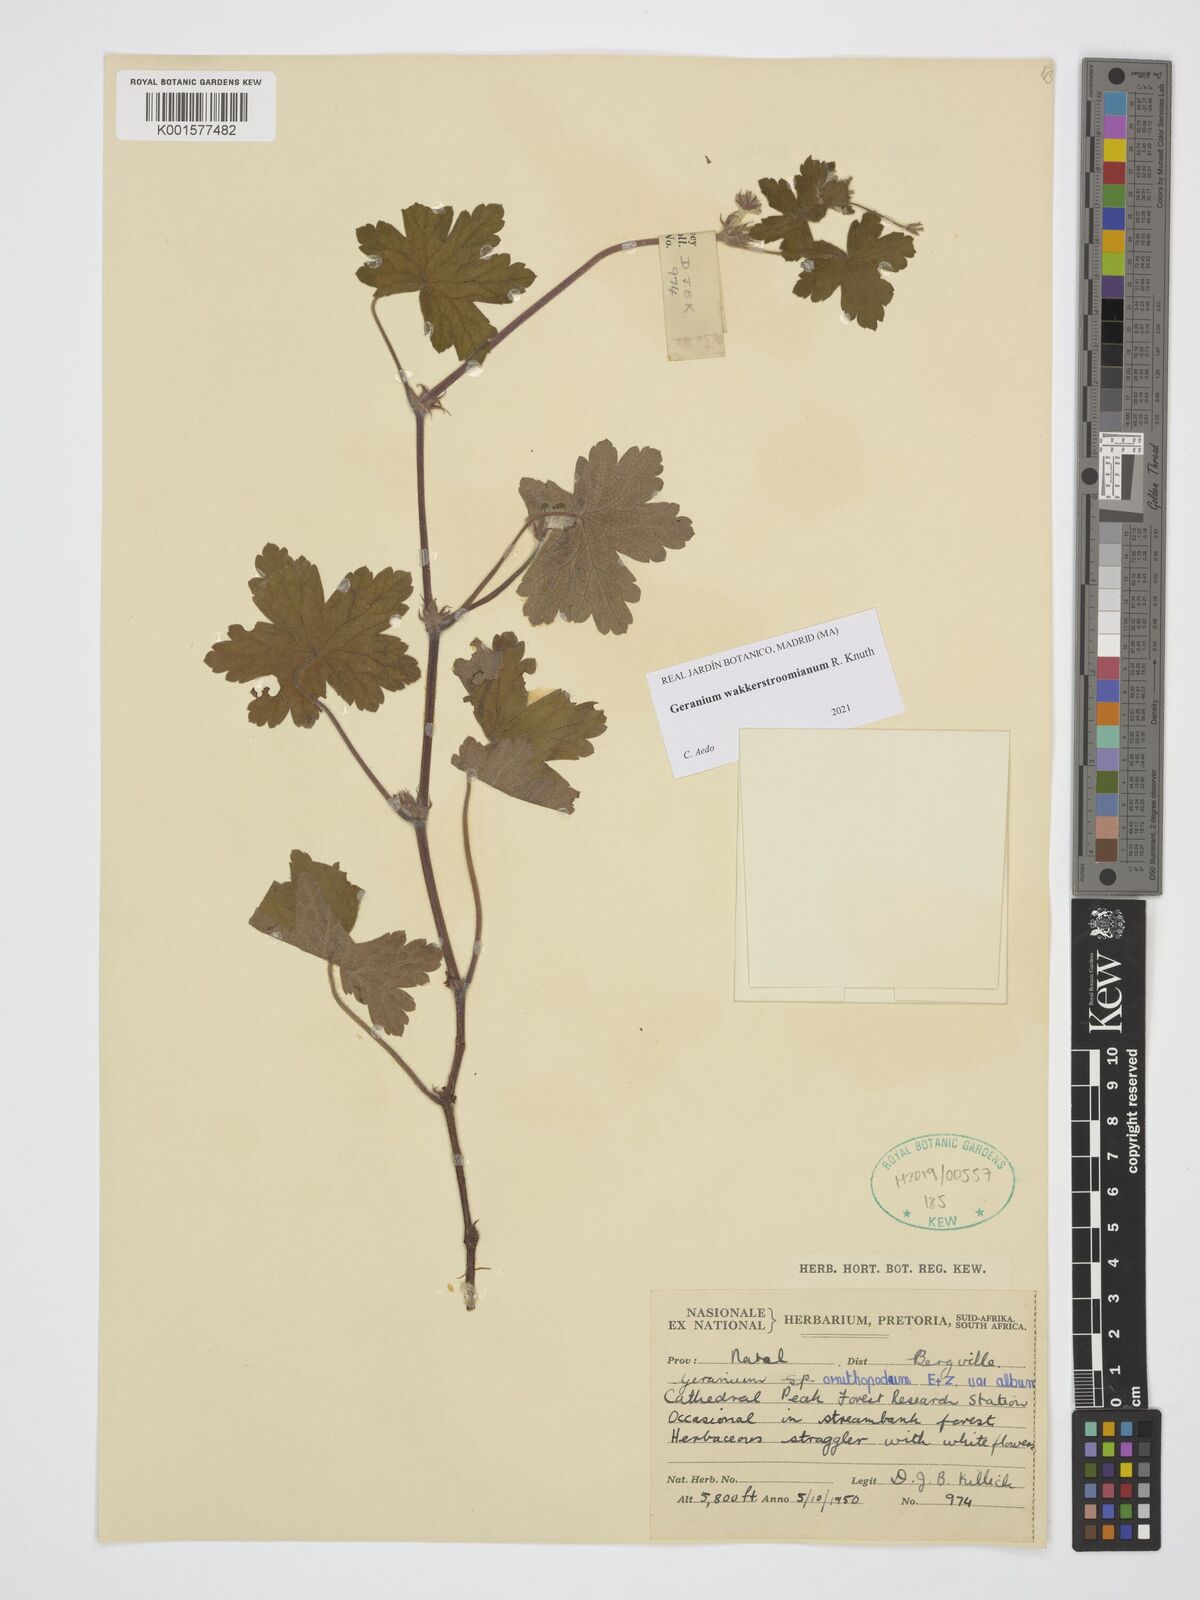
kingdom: Plantae
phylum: Tracheophyta
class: Magnoliopsida
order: Geraniales
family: Geraniaceae
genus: Geranium
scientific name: Geranium wakkerstroomianum
